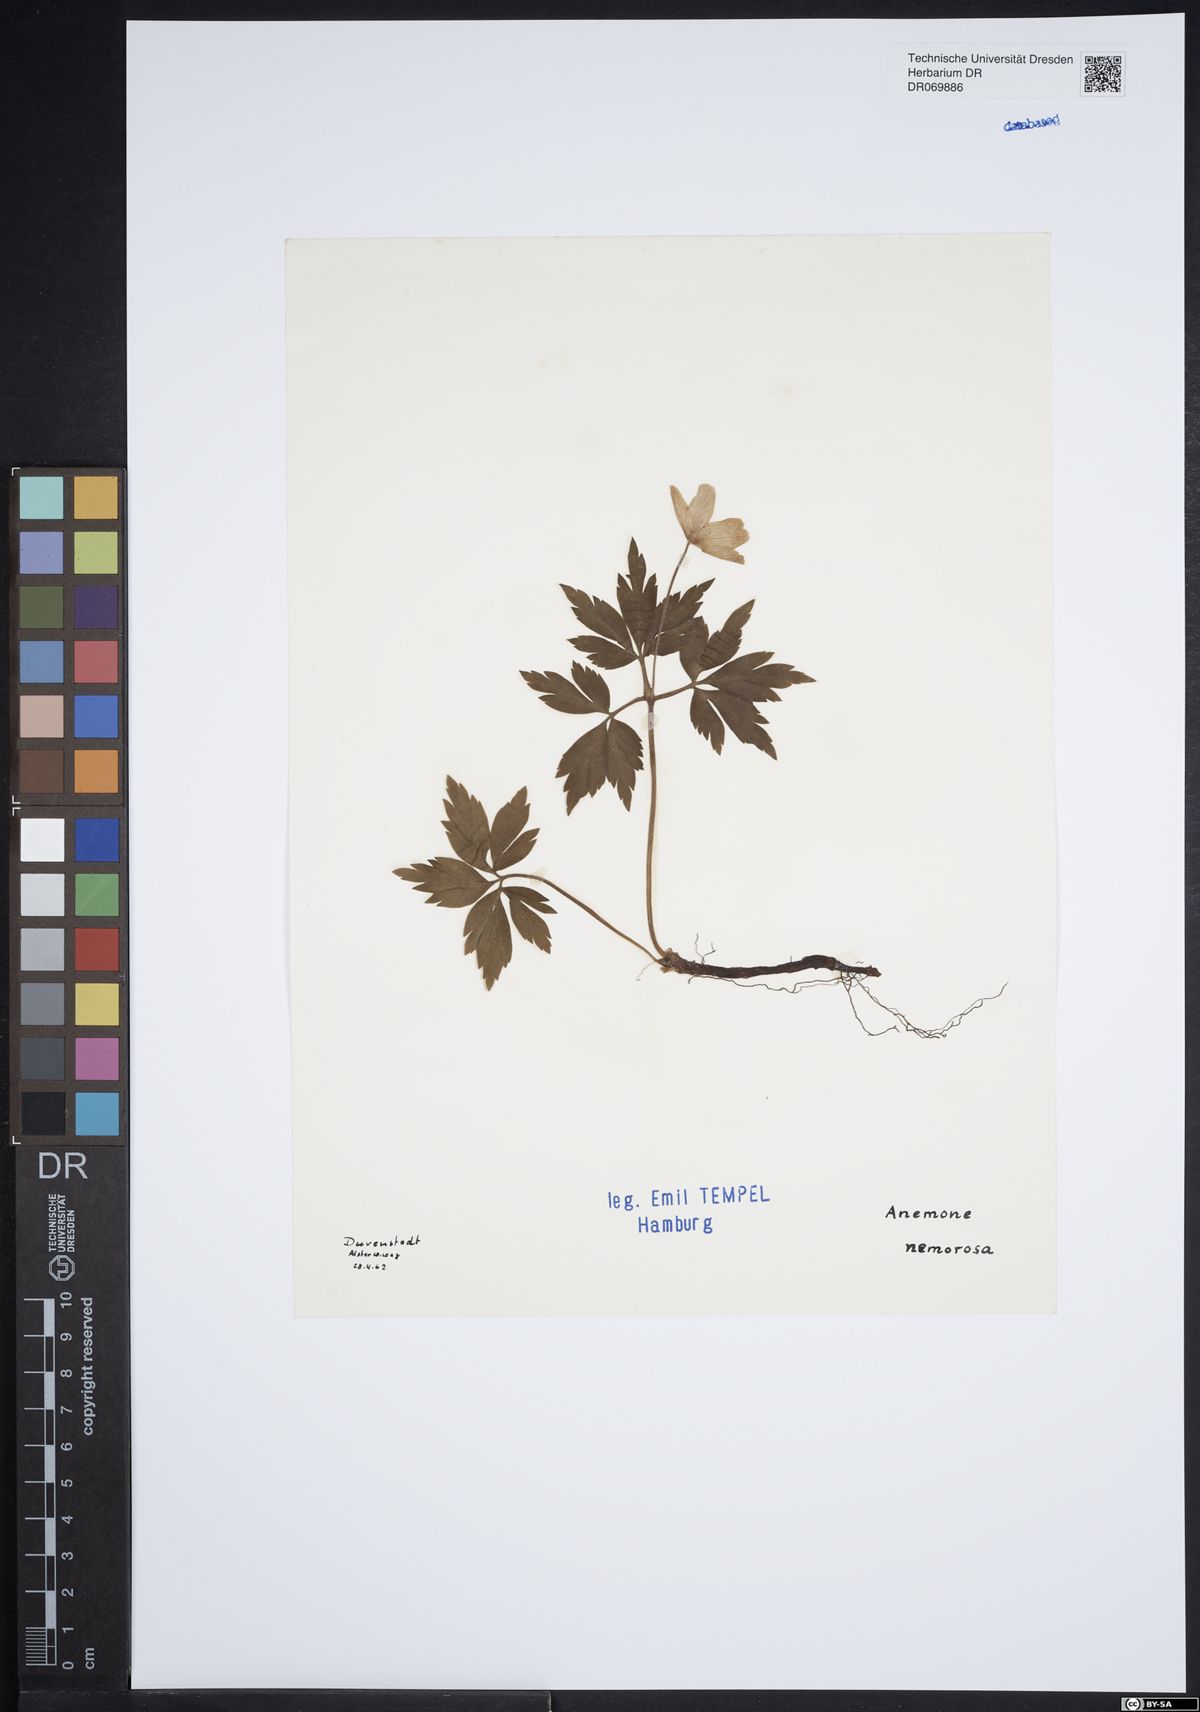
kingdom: Plantae
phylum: Tracheophyta
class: Magnoliopsida
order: Ranunculales
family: Ranunculaceae
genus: Anemone
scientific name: Anemone nemorosa
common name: Wood anemone
